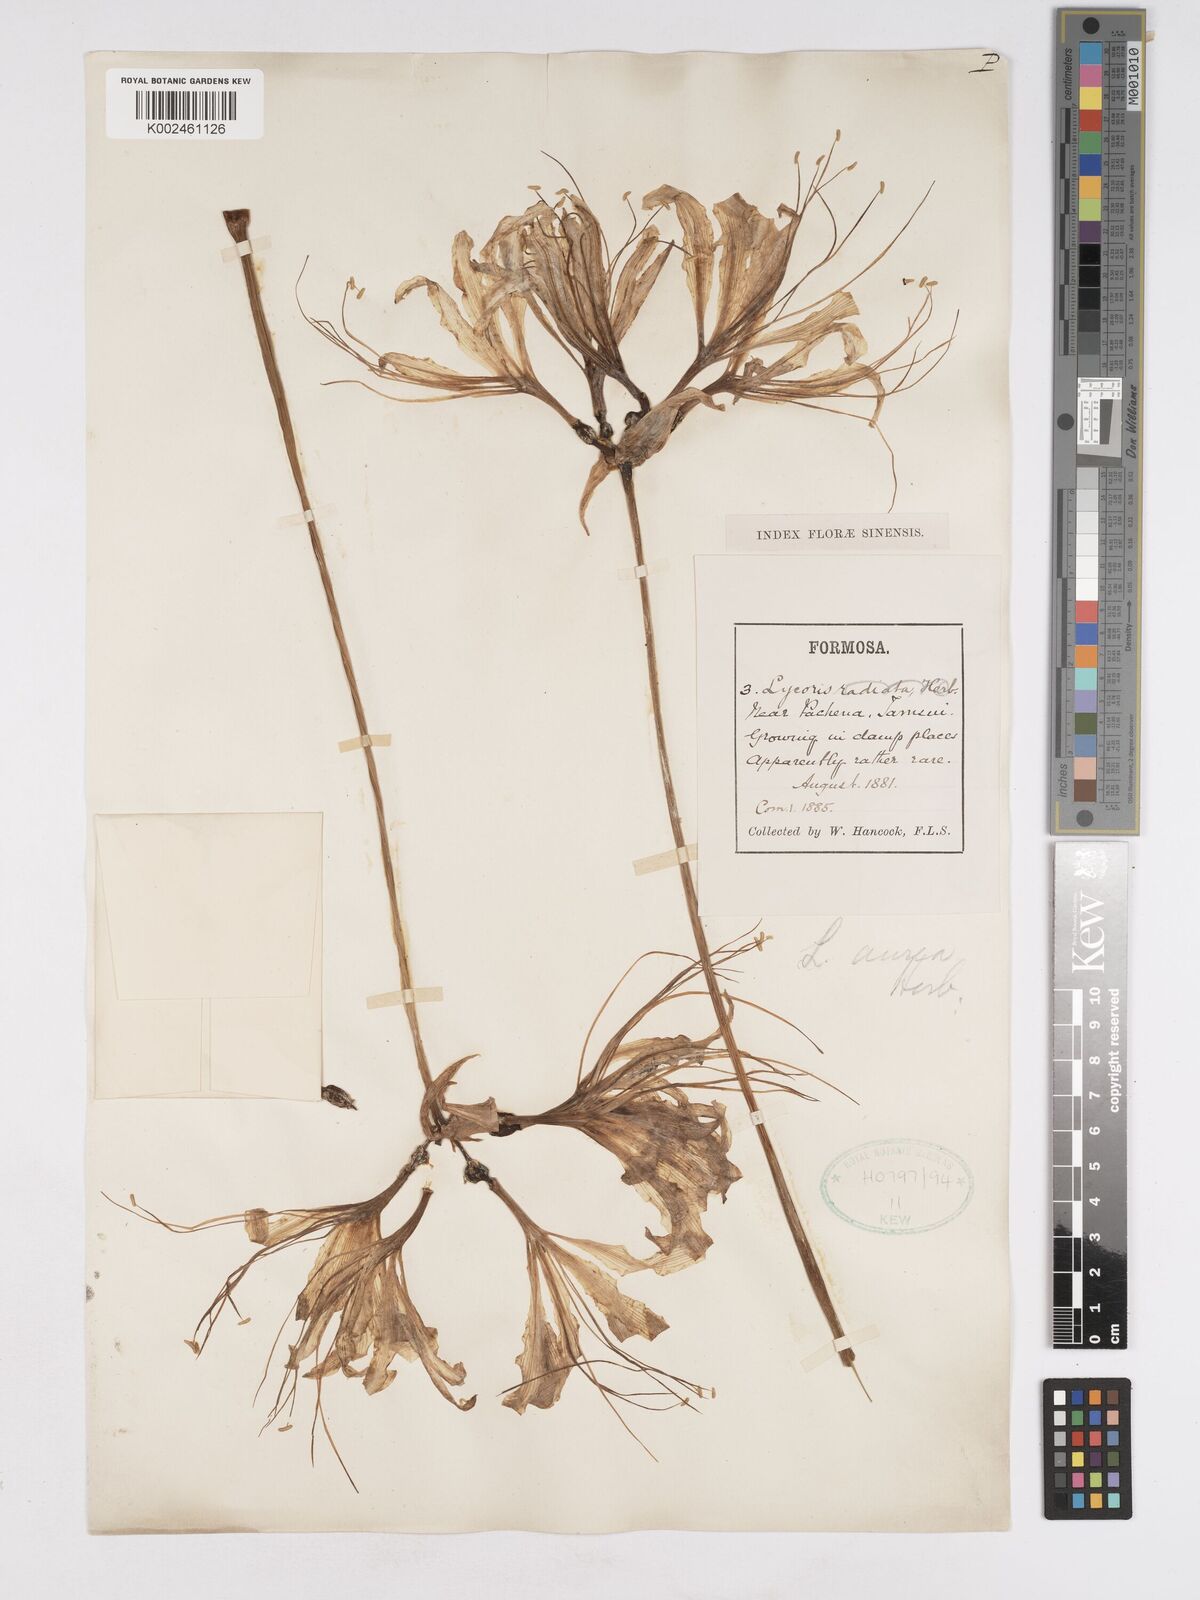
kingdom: Plantae
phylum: Tracheophyta
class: Liliopsida
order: Asparagales
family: Amaryllidaceae
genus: Lycoris
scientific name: Lycoris
